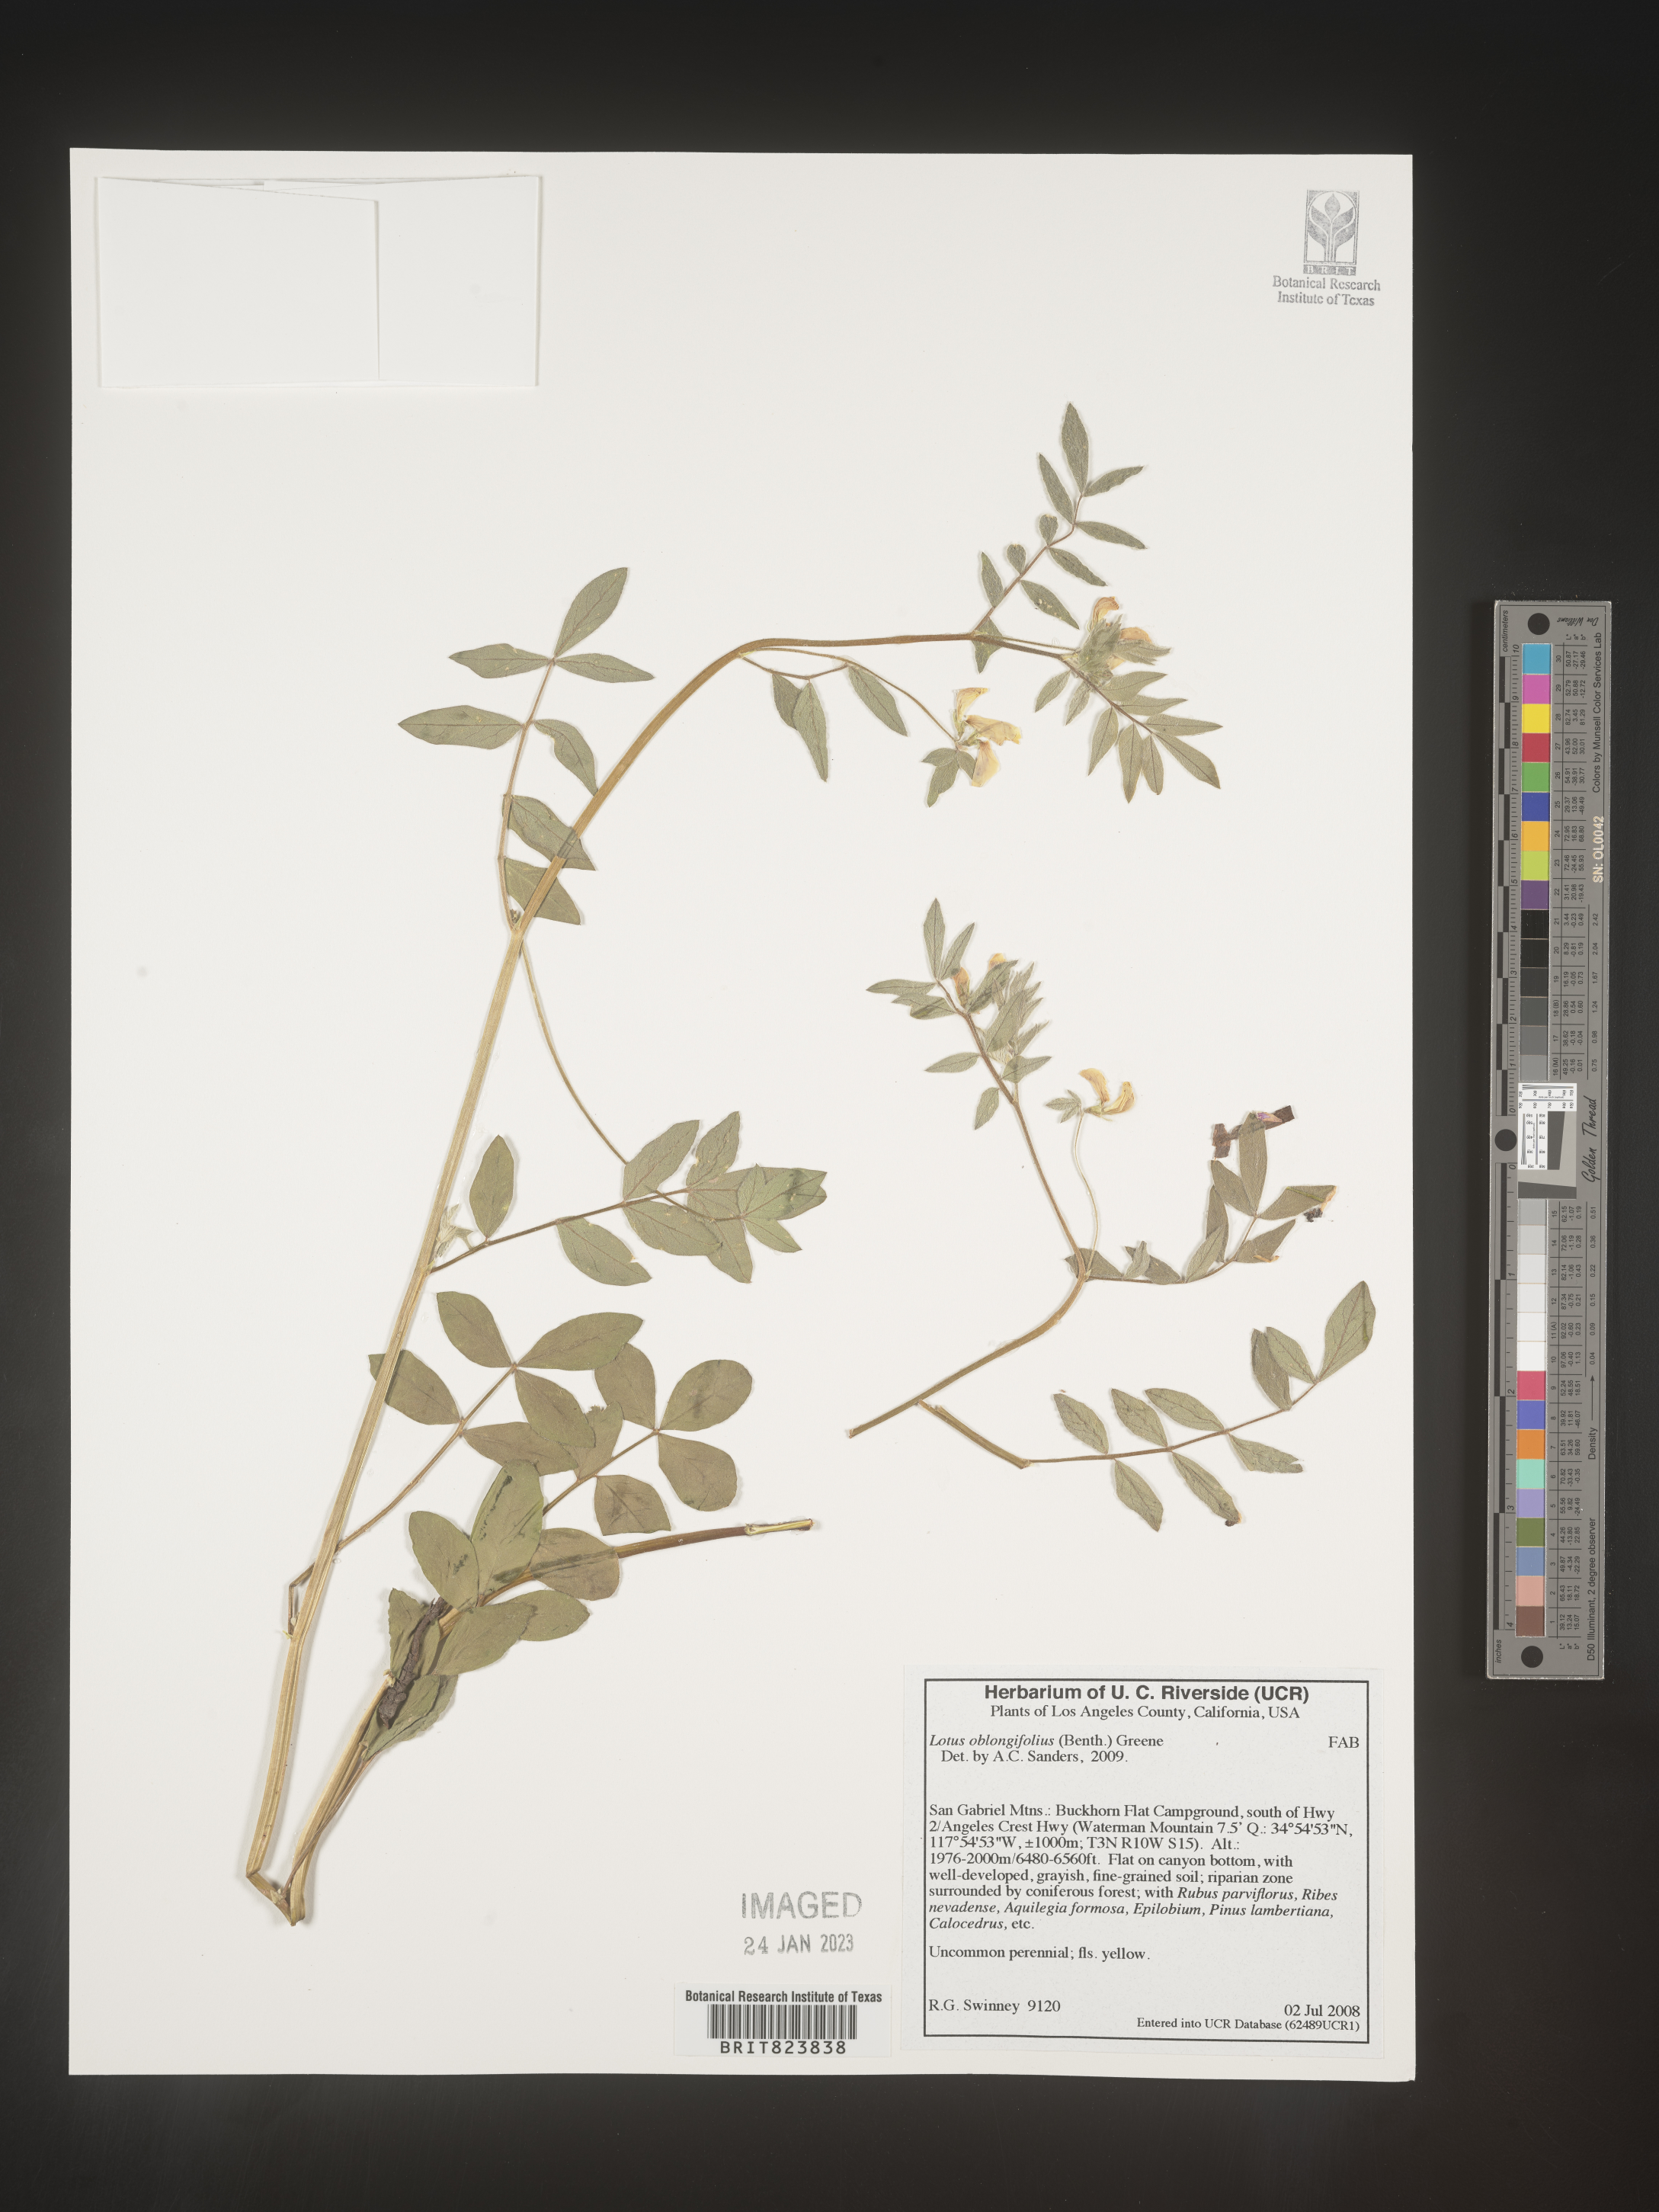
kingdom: Plantae
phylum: Tracheophyta
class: Magnoliopsida
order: Fabales
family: Fabaceae
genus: Hosackia
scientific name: Hosackia oblongifolia
